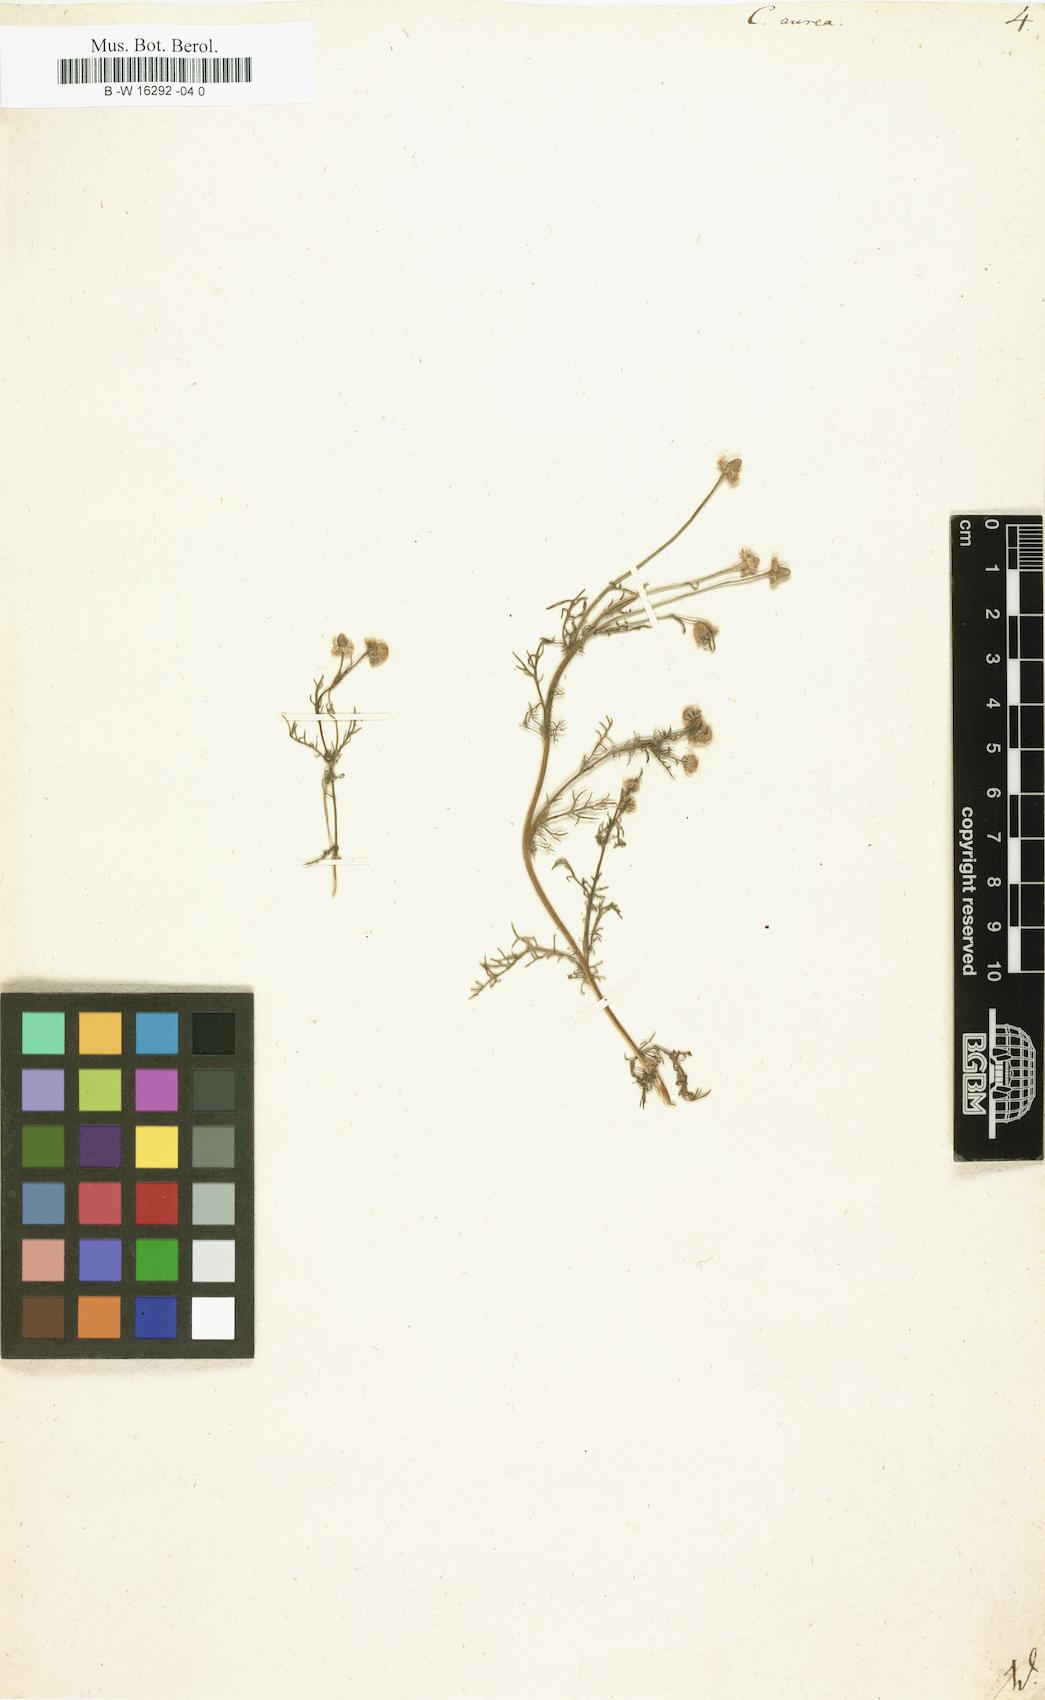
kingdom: Plantae
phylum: Tracheophyta
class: Magnoliopsida
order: Asterales
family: Asteraceae
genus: Cotula
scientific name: Cotula aurea
